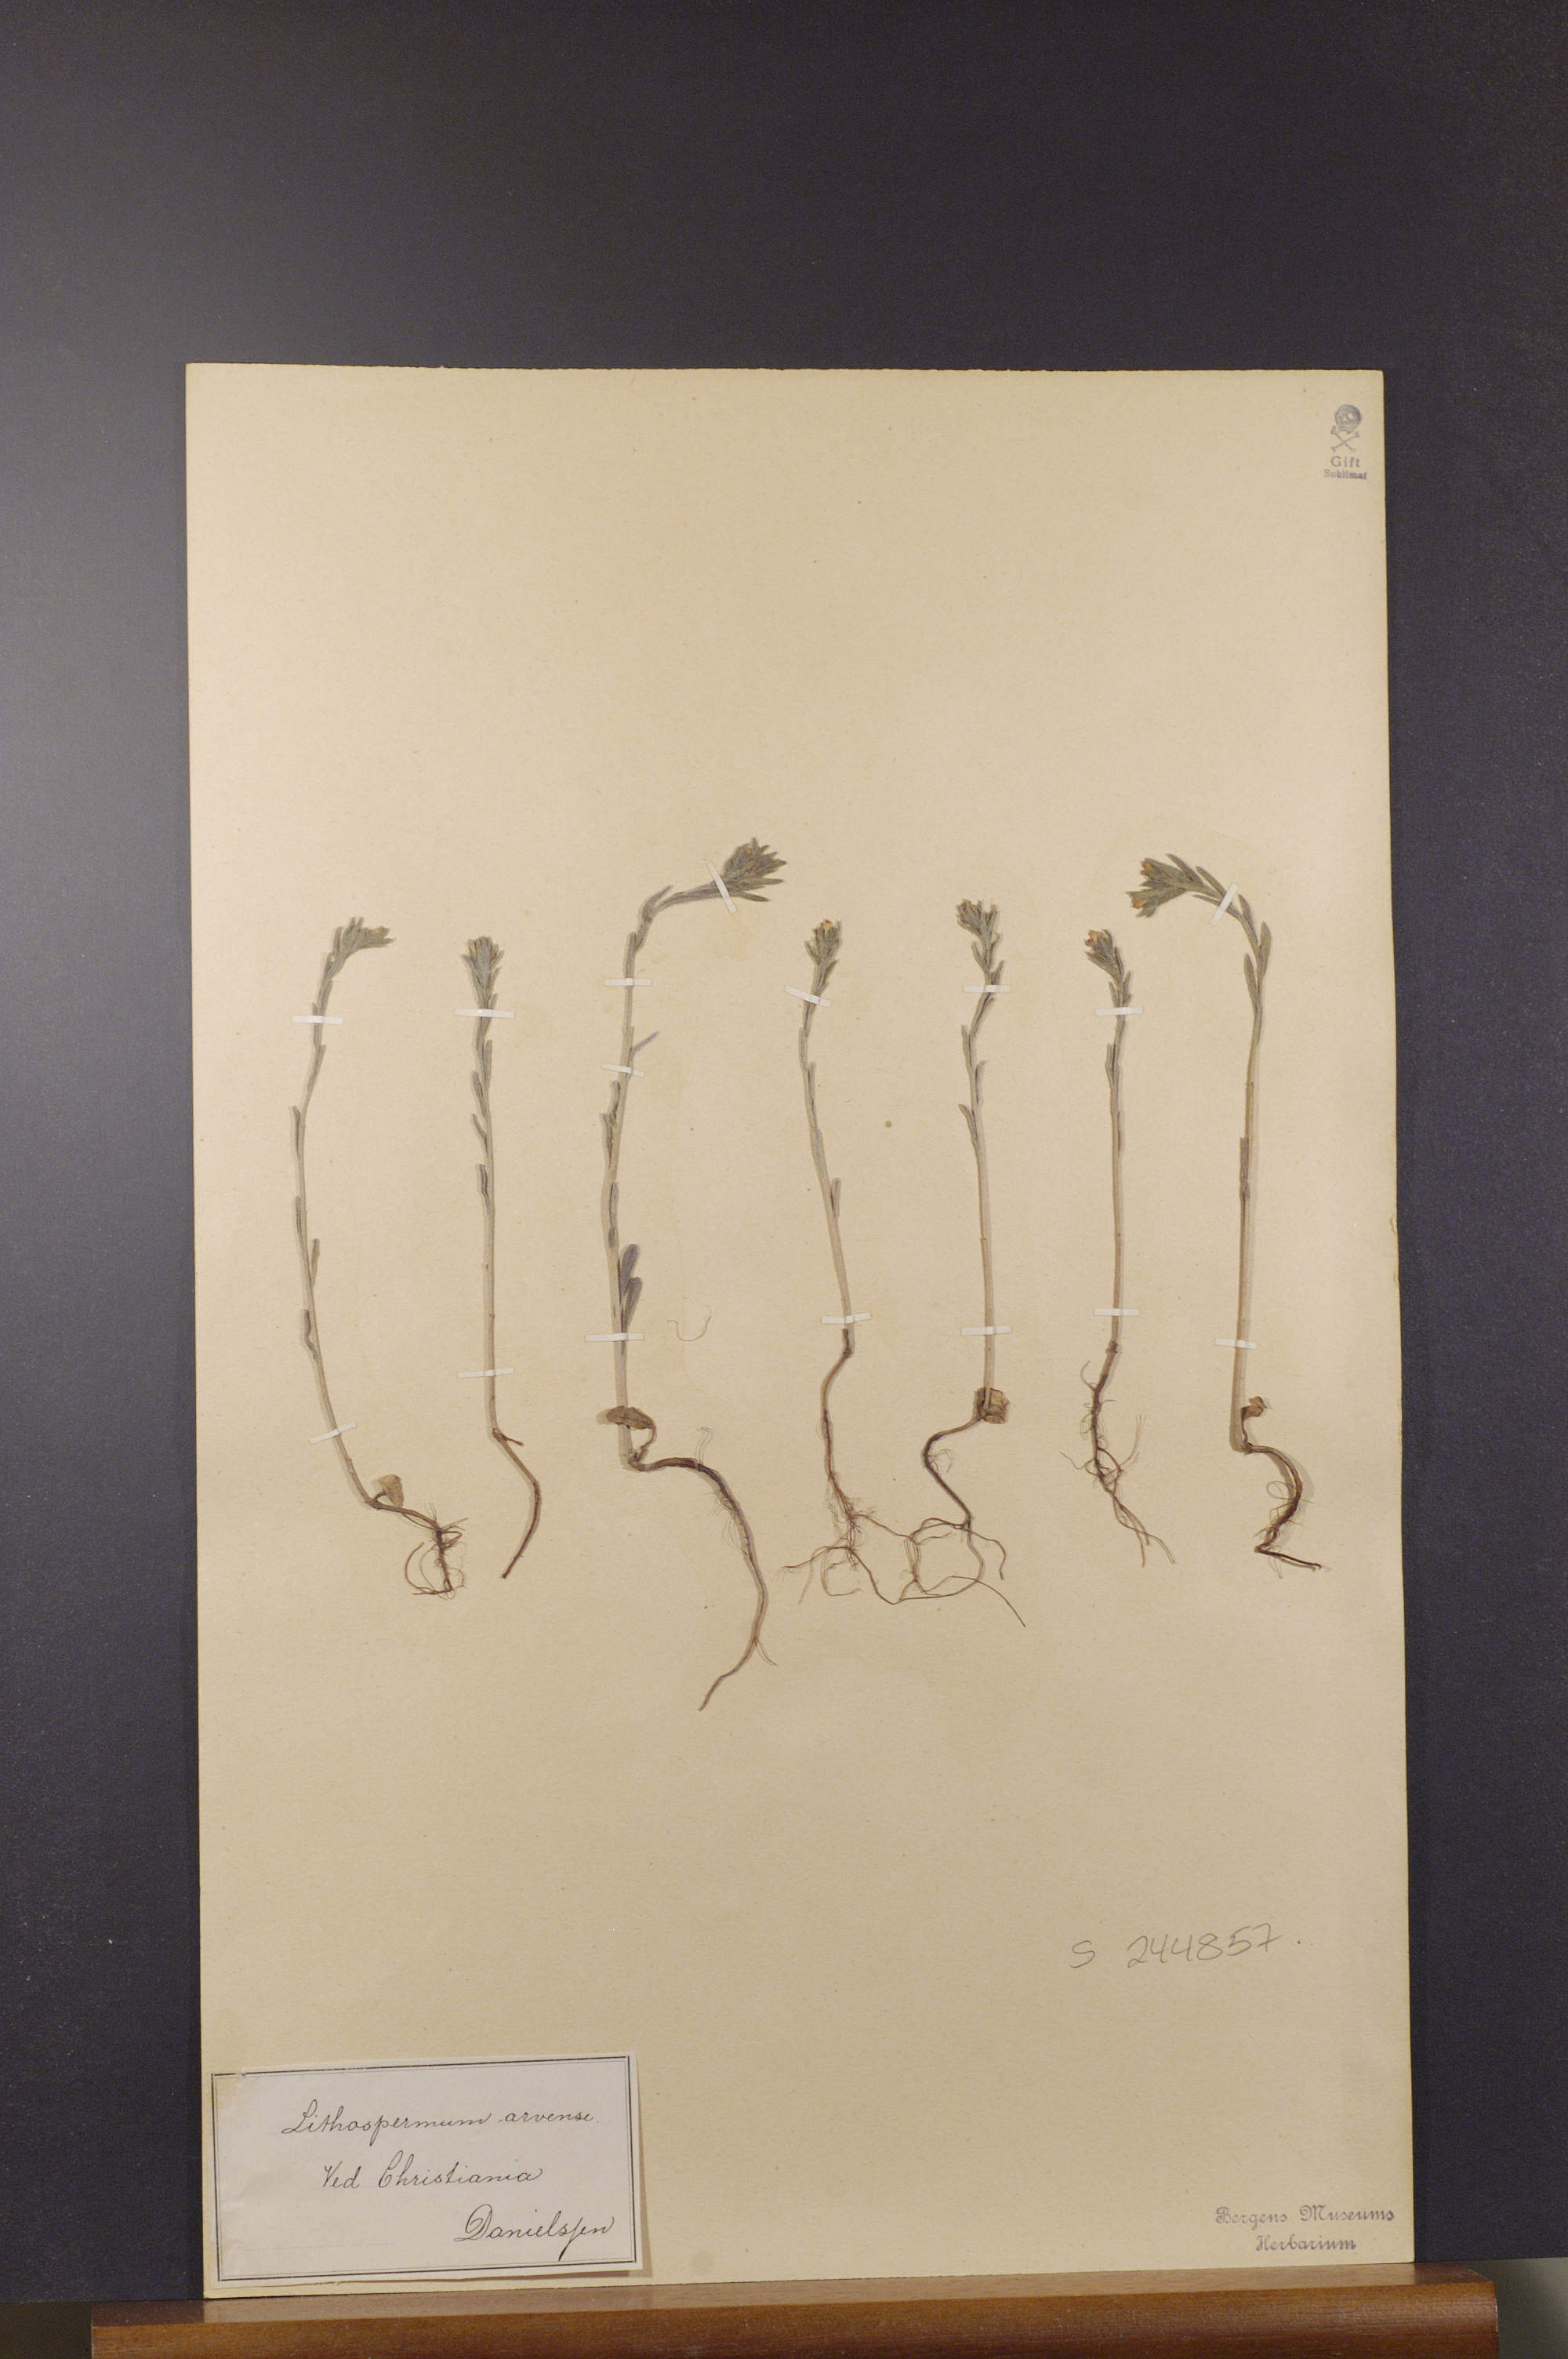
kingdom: Plantae
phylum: Tracheophyta
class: Magnoliopsida
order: Boraginales
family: Boraginaceae
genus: Buglossoides
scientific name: Buglossoides arvensis
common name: Corn gromwell
